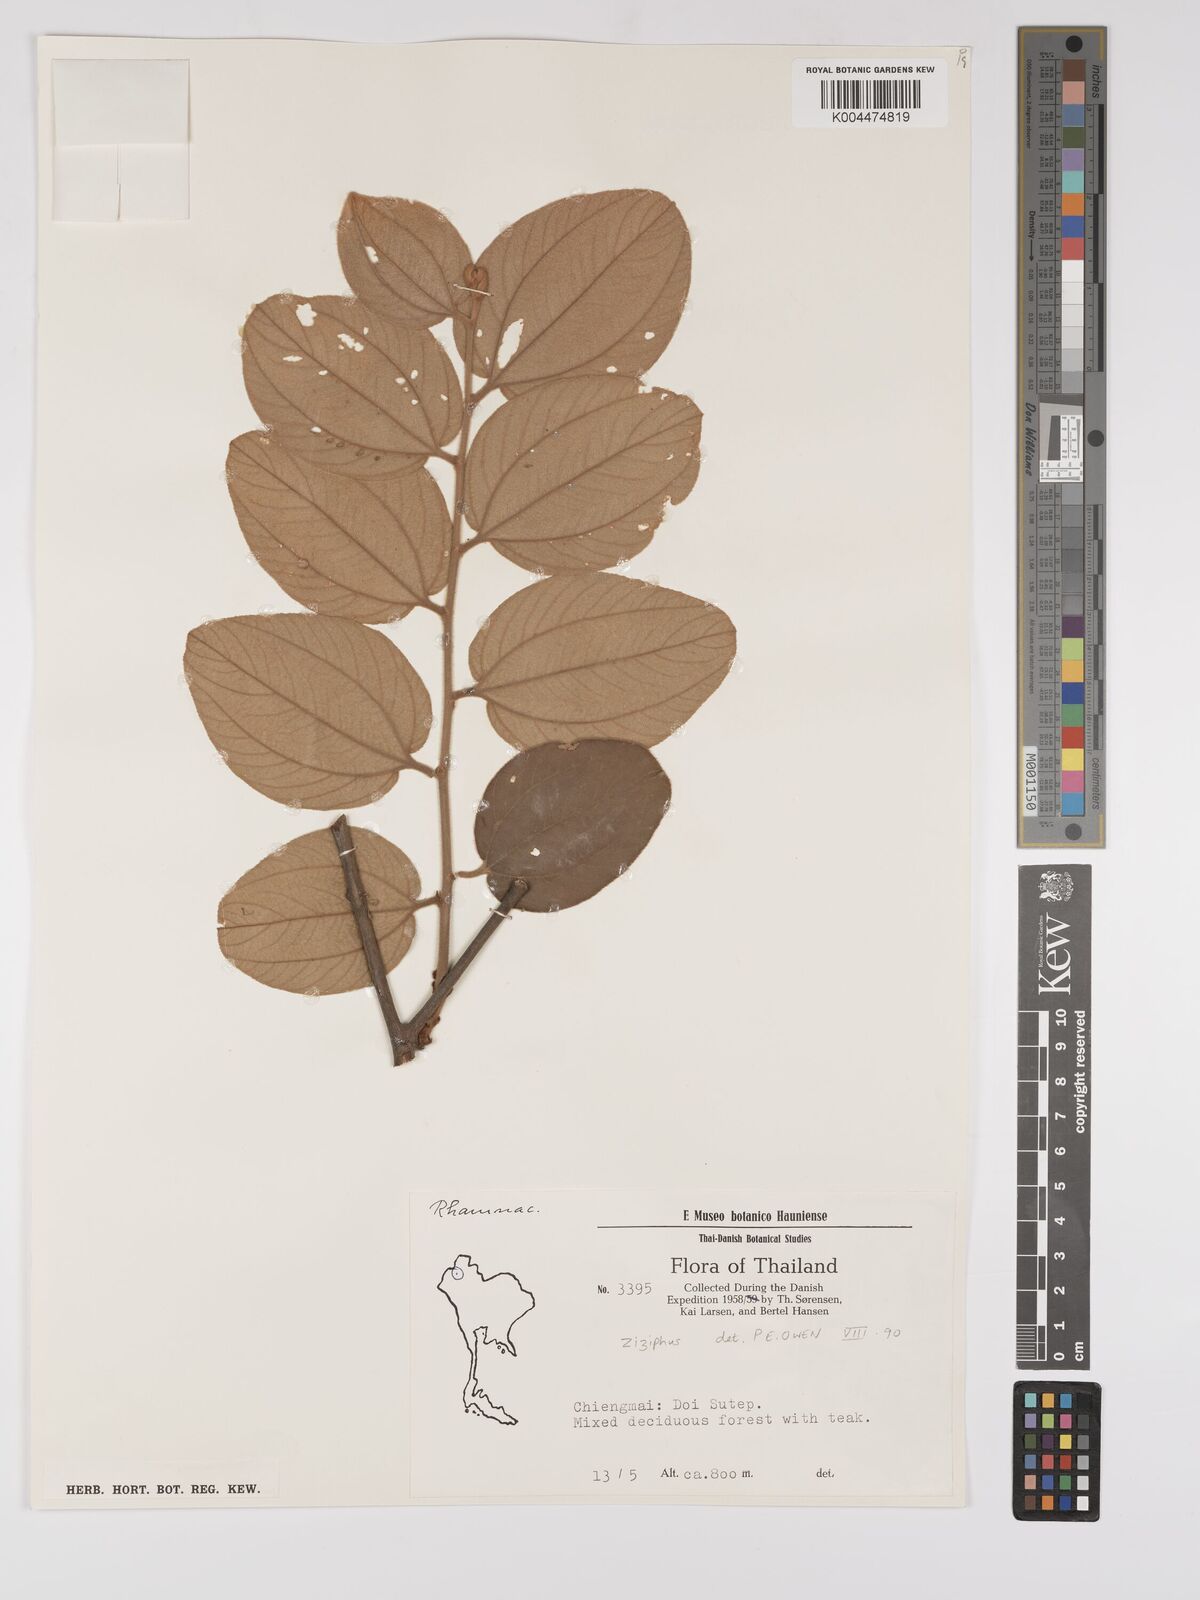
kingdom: Plantae
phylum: Tracheophyta
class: Magnoliopsida
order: Rosales
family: Rhamnaceae
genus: Ziziphus
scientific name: Ziziphus rugosa
